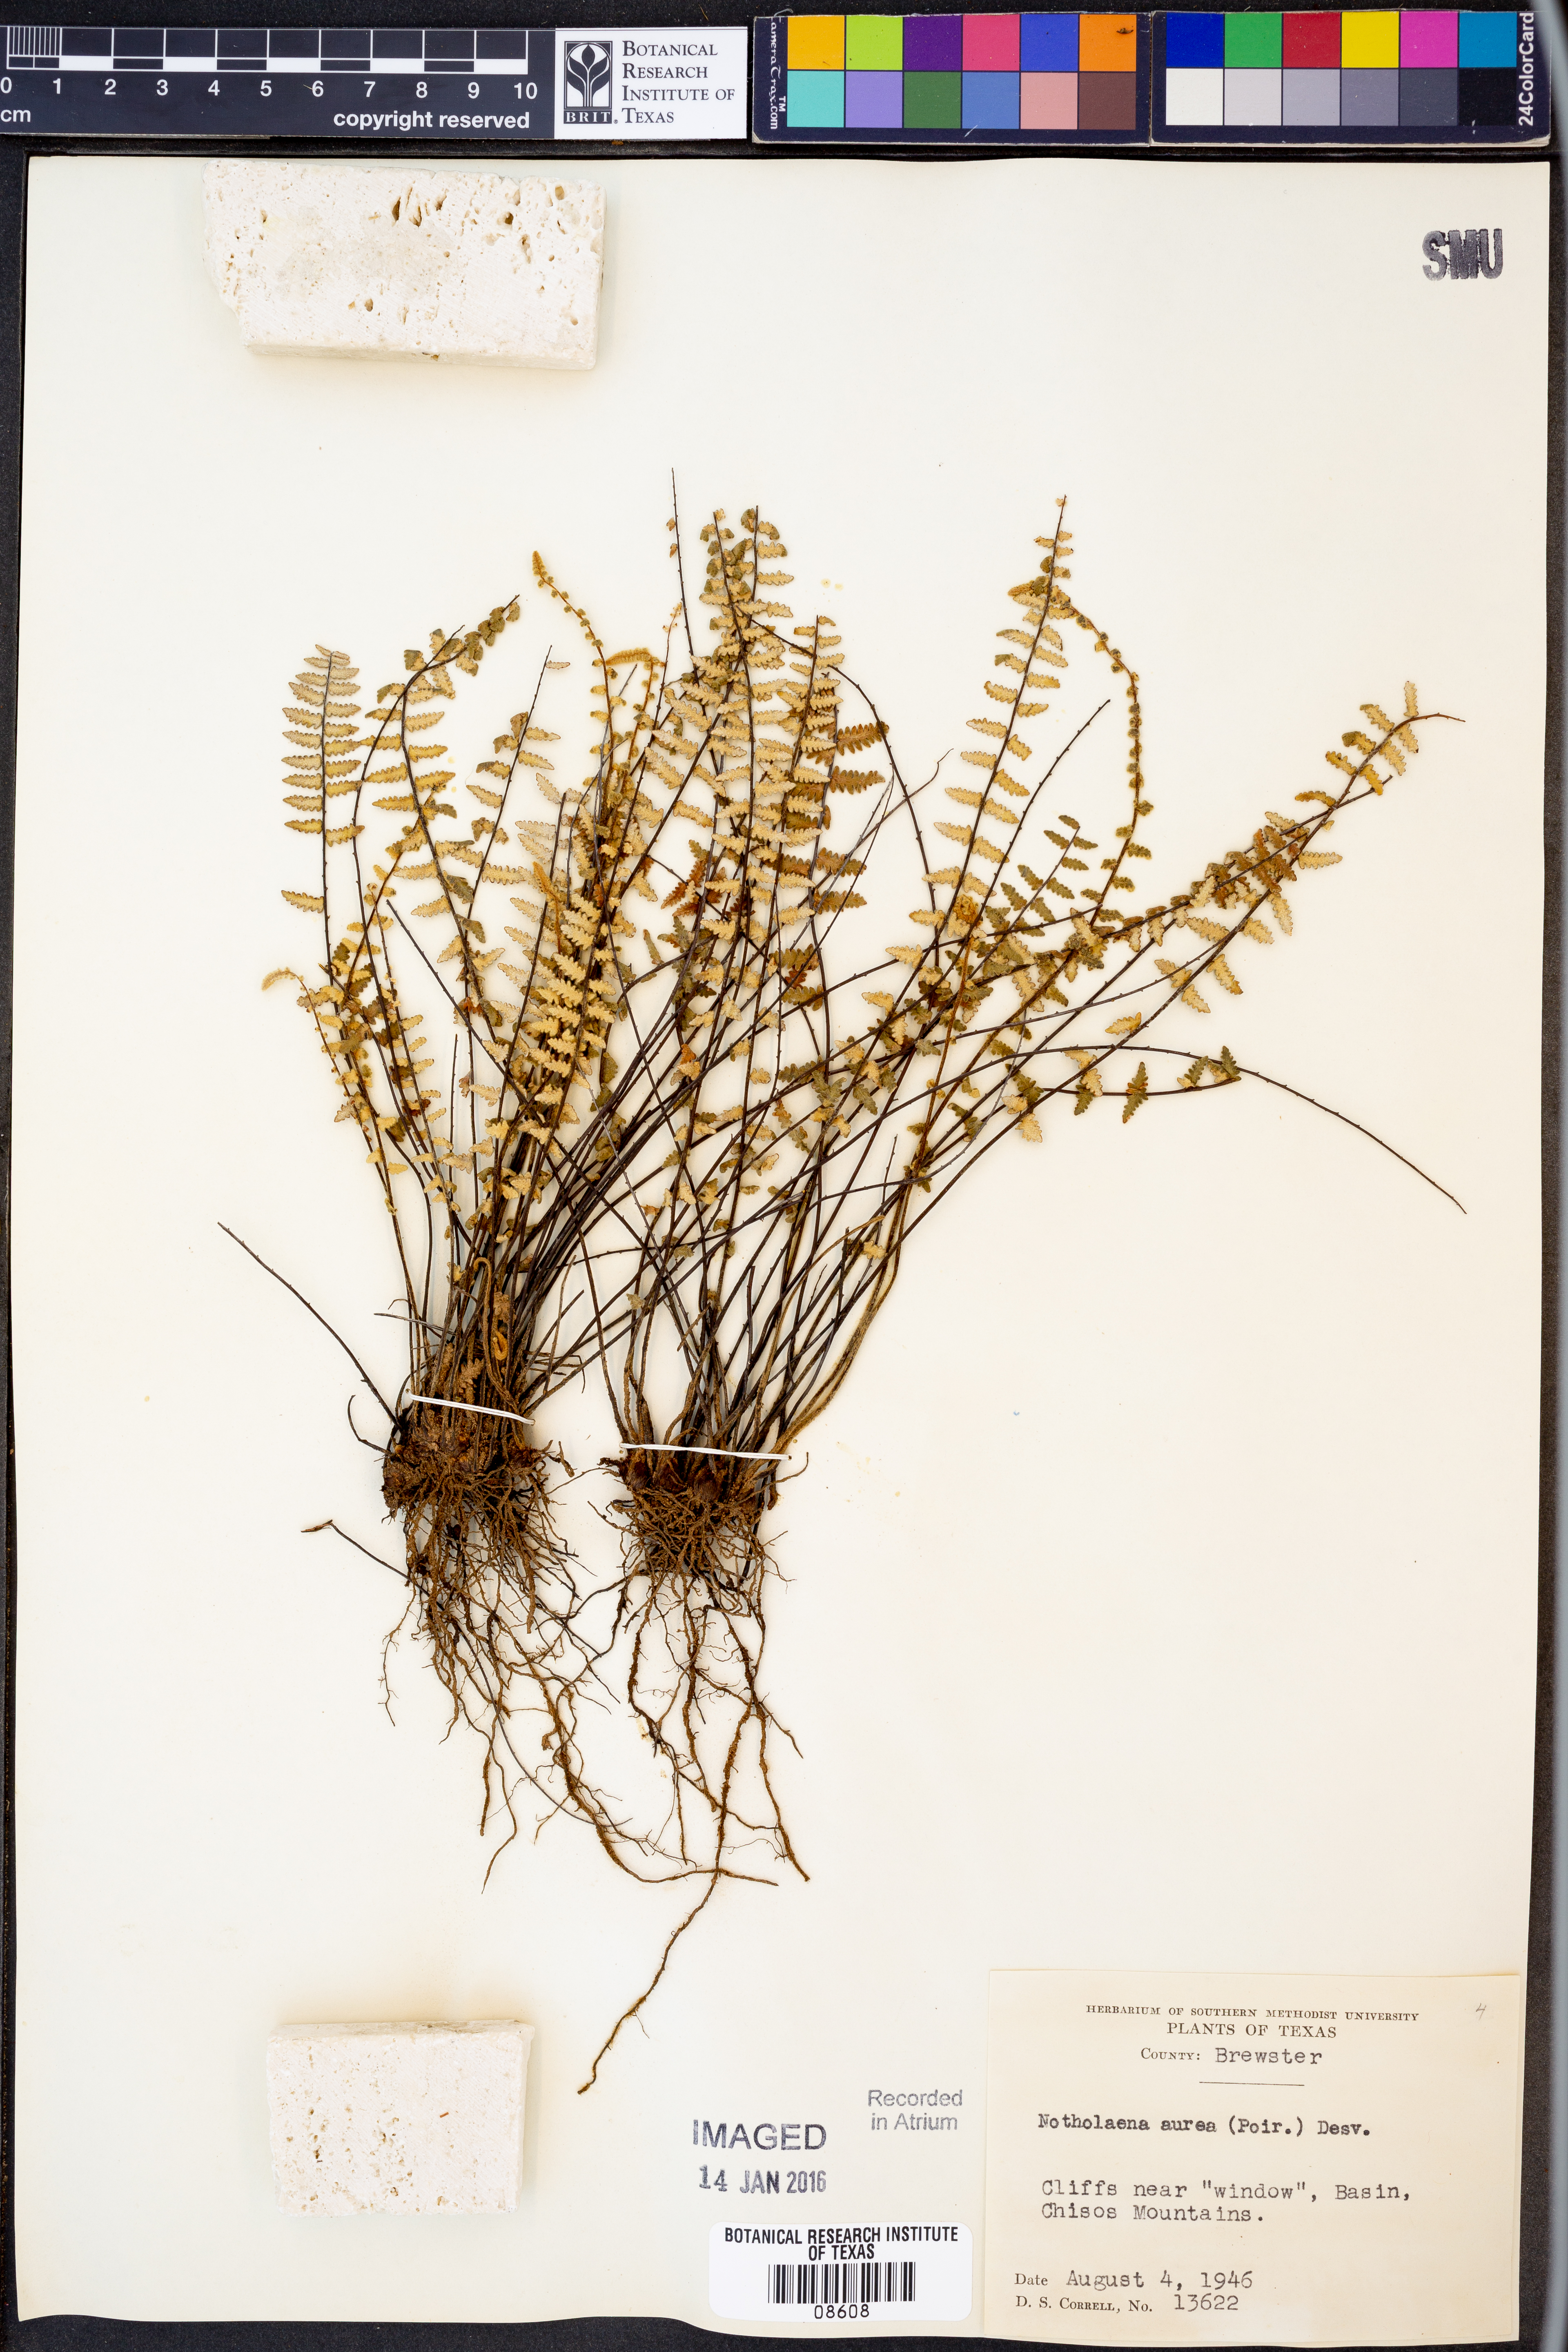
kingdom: Plantae
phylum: Tracheophyta
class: Polypodiopsida
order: Polypodiales
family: Pteridaceae
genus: Myriopteris
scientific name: Myriopteris aurea
